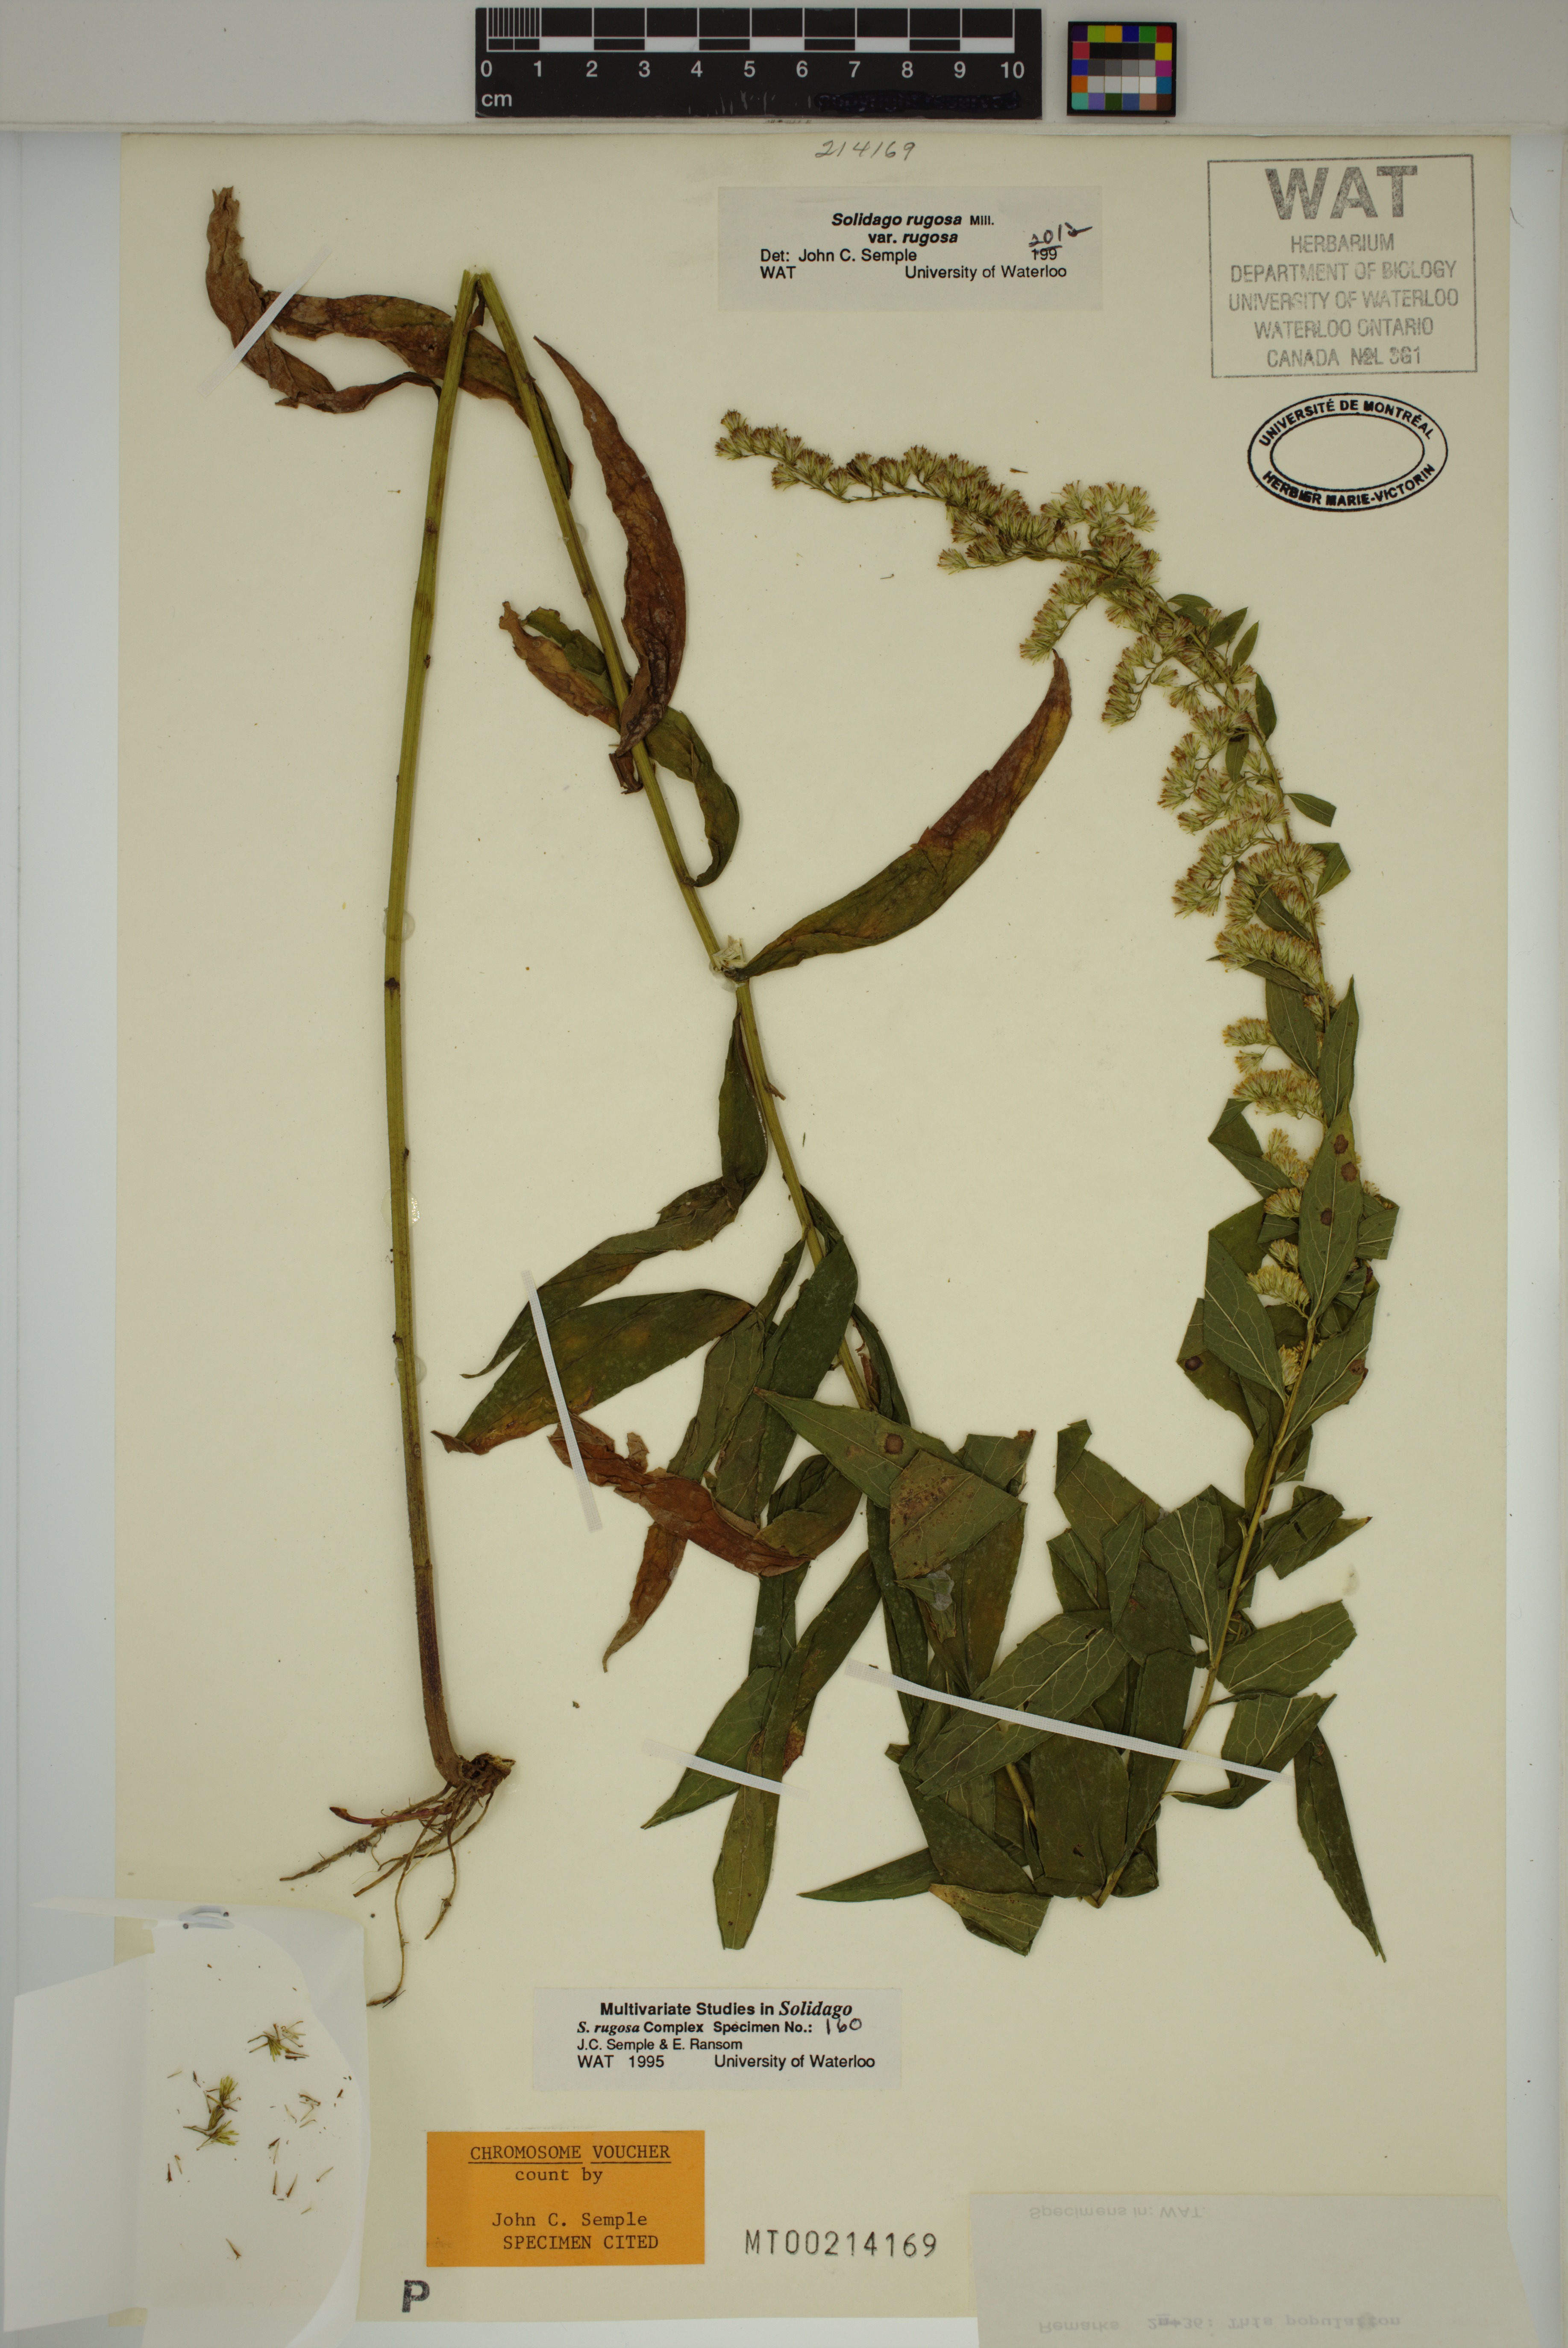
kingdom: Plantae
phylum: Tracheophyta
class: Magnoliopsida
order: Asterales
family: Asteraceae
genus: Solidago
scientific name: Solidago rugosa
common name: Rough-stemmed goldenrod
